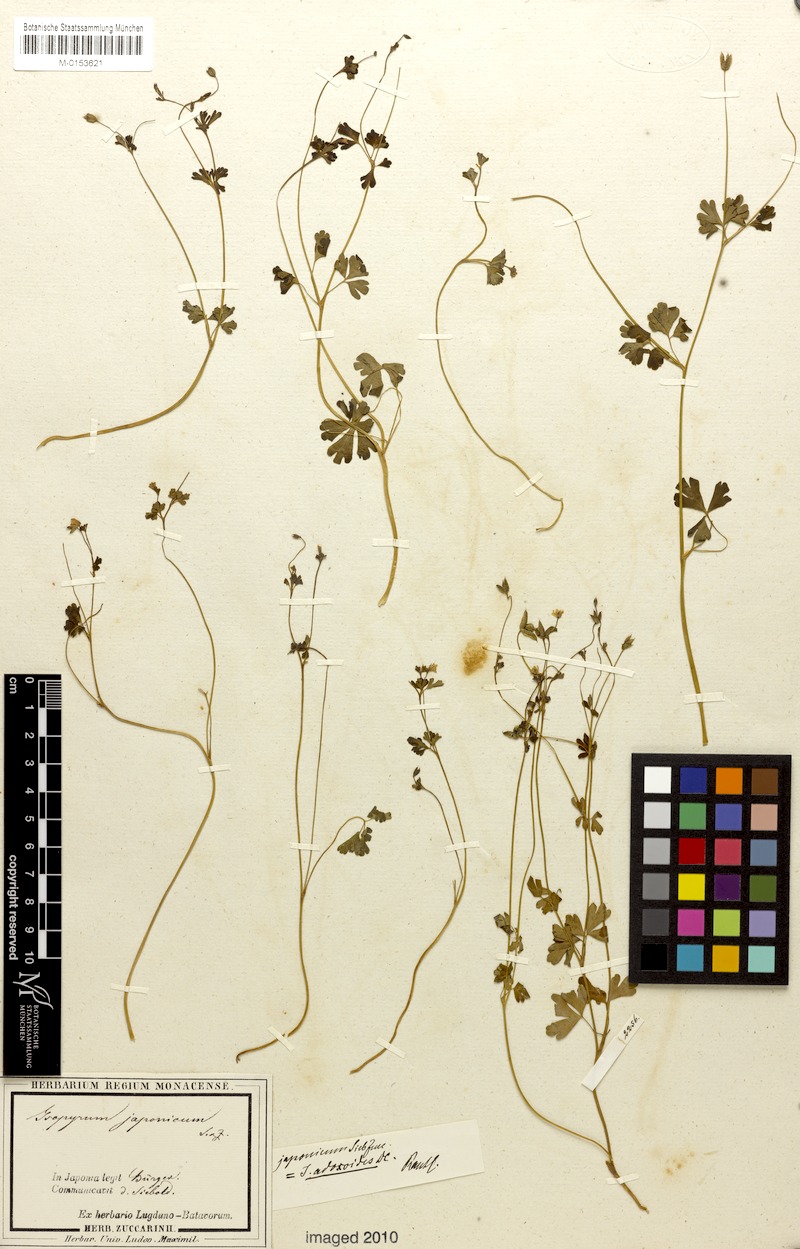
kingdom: Plantae
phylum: Tracheophyta
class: Magnoliopsida
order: Ranunculales
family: Ranunculaceae
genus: Semiaquilegia
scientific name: Semiaquilegia adoxoides
